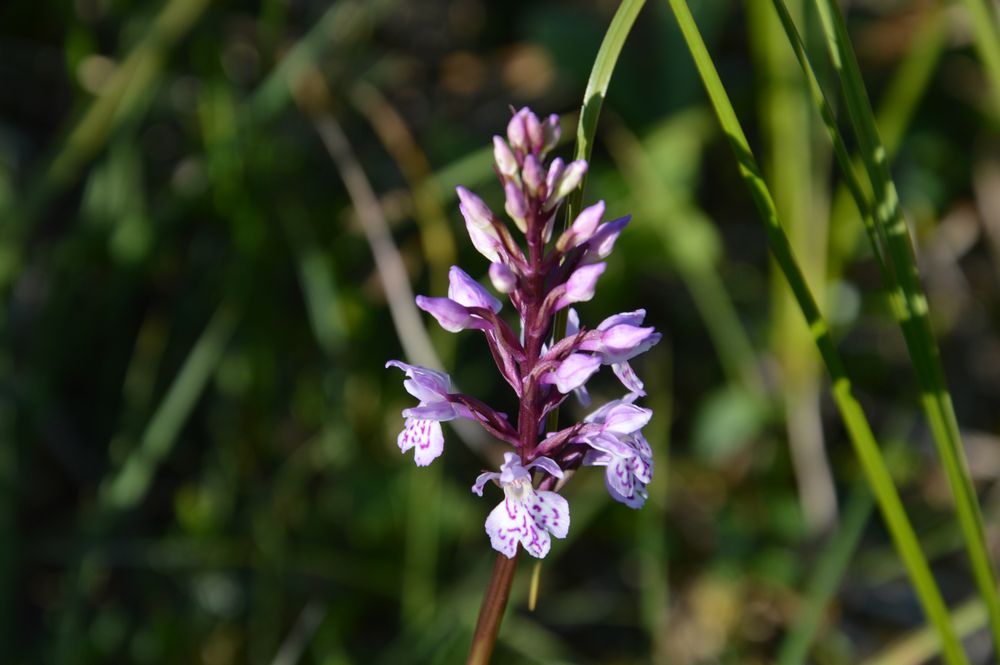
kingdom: Plantae
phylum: Tracheophyta
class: Liliopsida
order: Asparagales
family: Orchidaceae
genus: Dactylorhiza
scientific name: Dactylorhiza maculata
